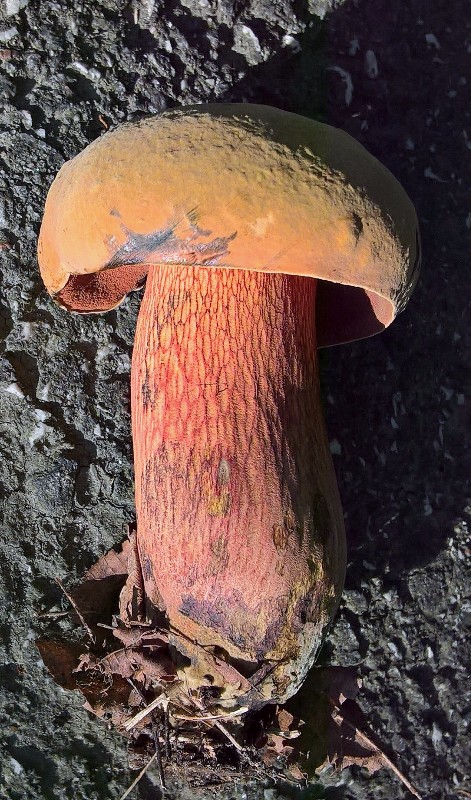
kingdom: Fungi
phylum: Basidiomycota
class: Agaricomycetes
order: Boletales
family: Boletaceae
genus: Suillellus
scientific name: Suillellus luridus
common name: netstokket indigorørhat
